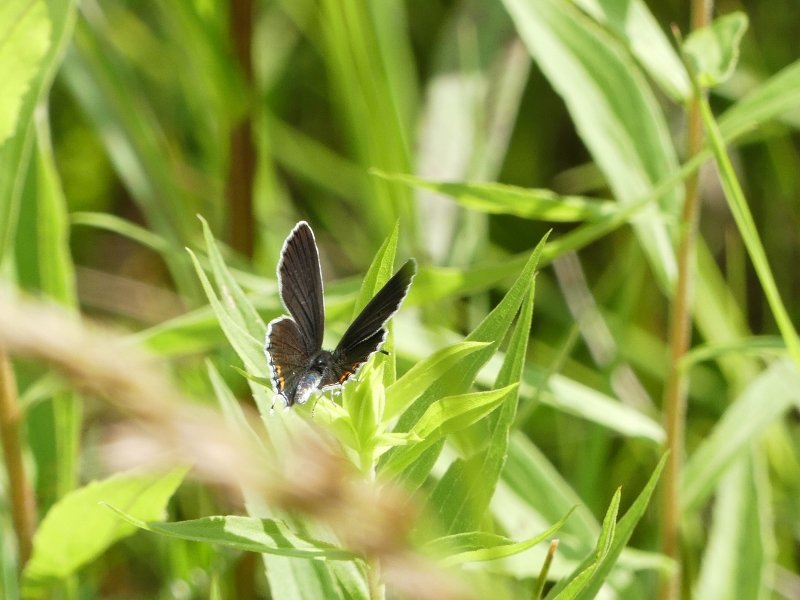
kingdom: Animalia
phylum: Arthropoda
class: Insecta
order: Lepidoptera
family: Lycaenidae
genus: Elkalyce
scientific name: Elkalyce comyntas
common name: Eastern Tailed-Blue
